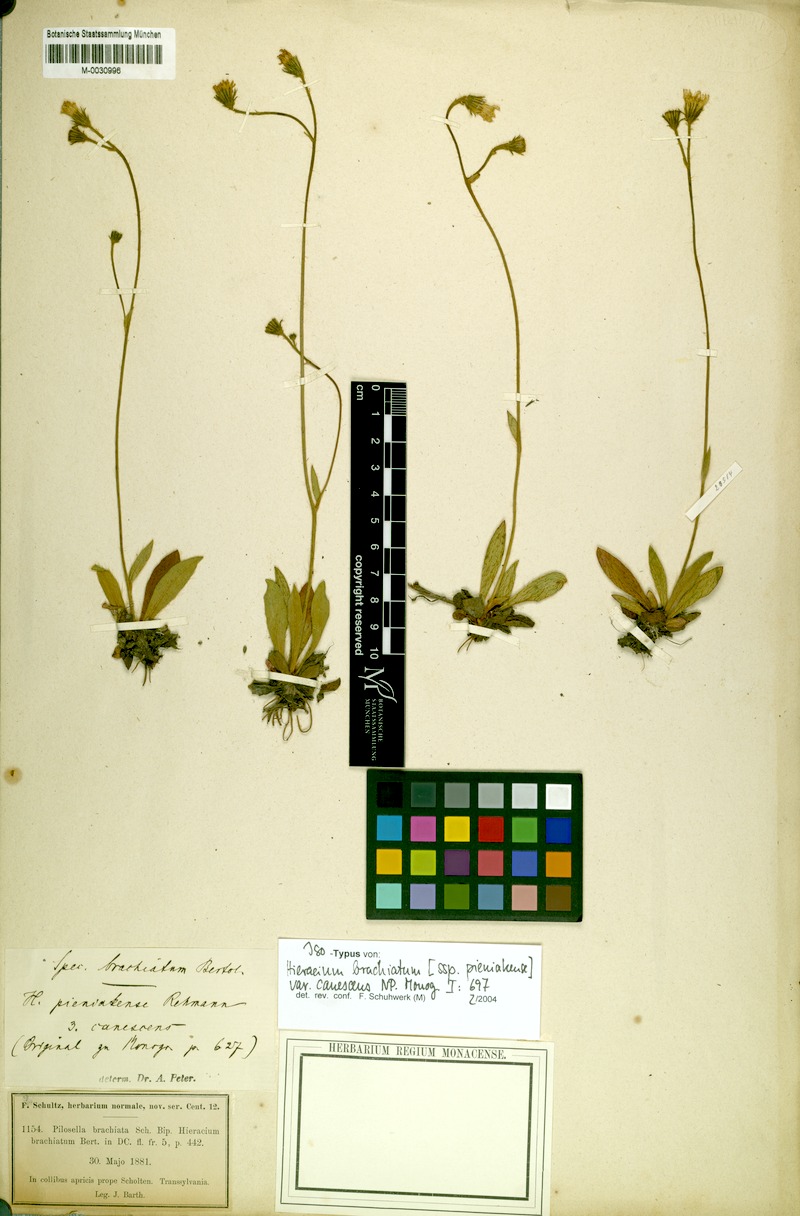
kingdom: Plantae
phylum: Tracheophyta
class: Magnoliopsida
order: Asterales
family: Asteraceae
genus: Pilosella
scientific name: Pilosella acutifolia
